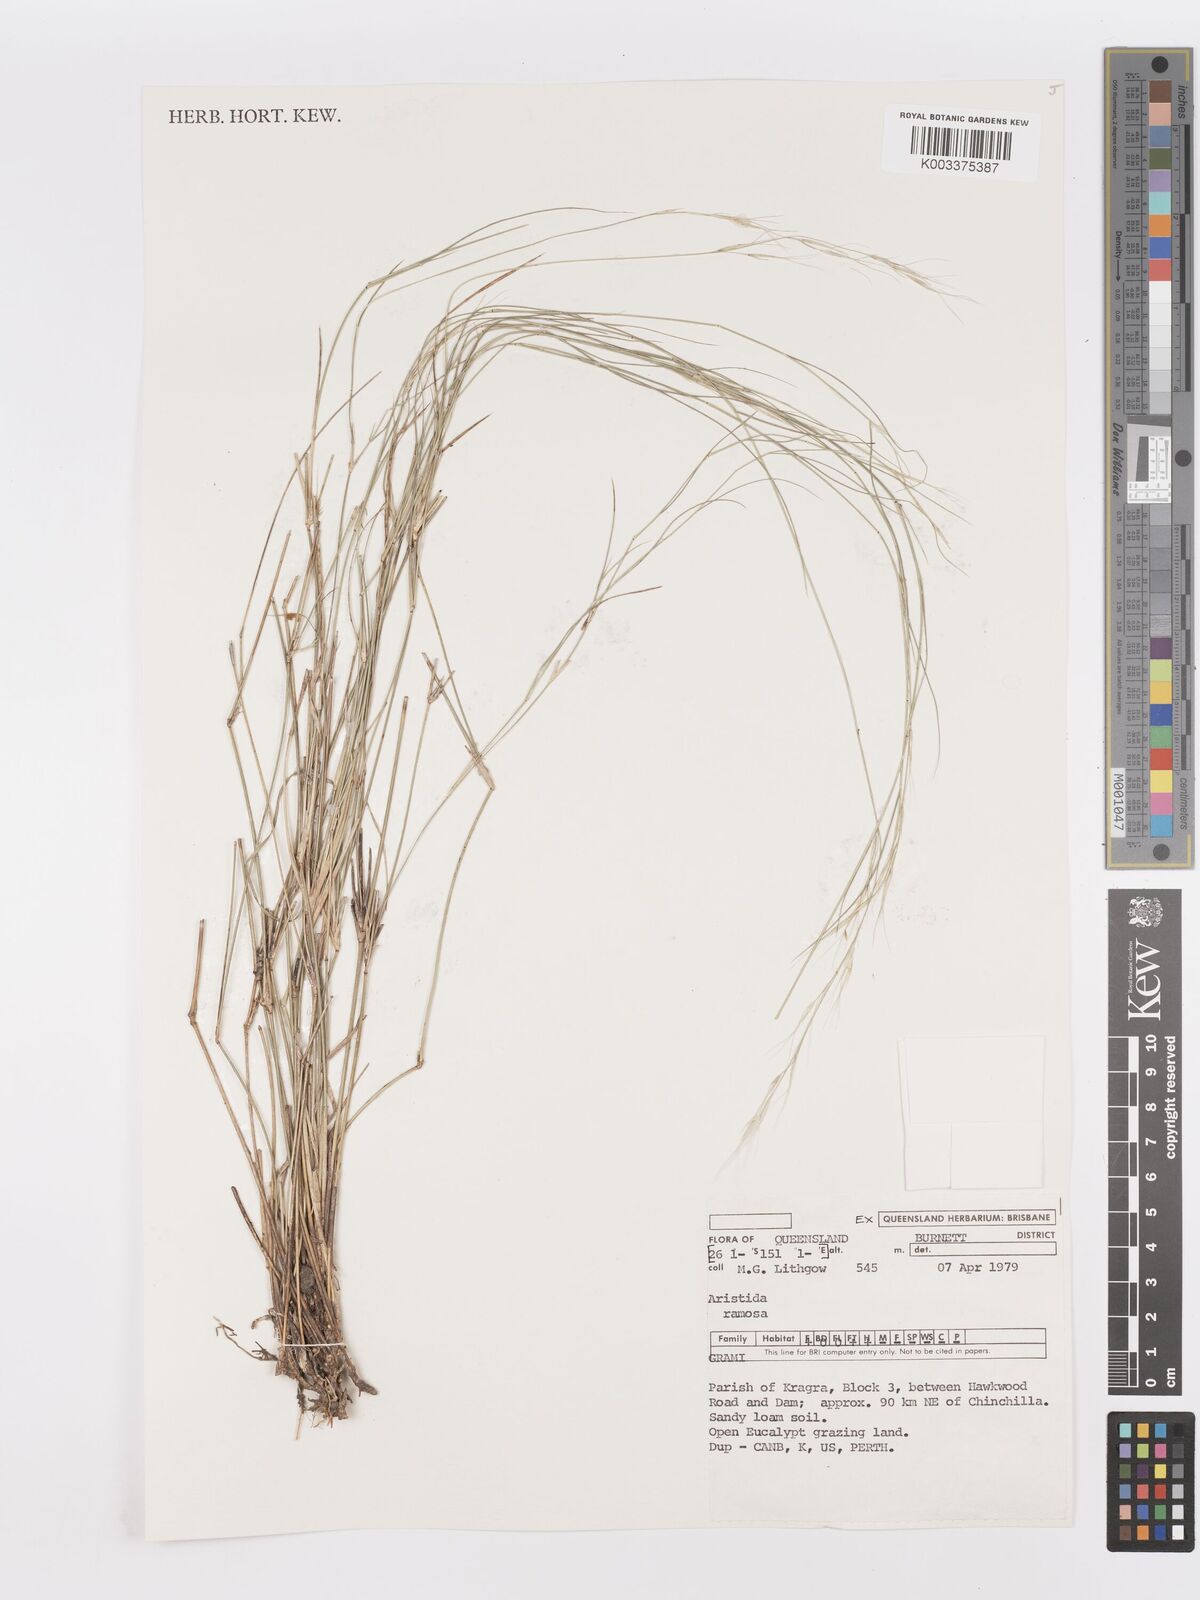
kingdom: Plantae
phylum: Tracheophyta
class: Liliopsida
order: Poales
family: Poaceae
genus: Aristida
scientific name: Aristida ramosa
